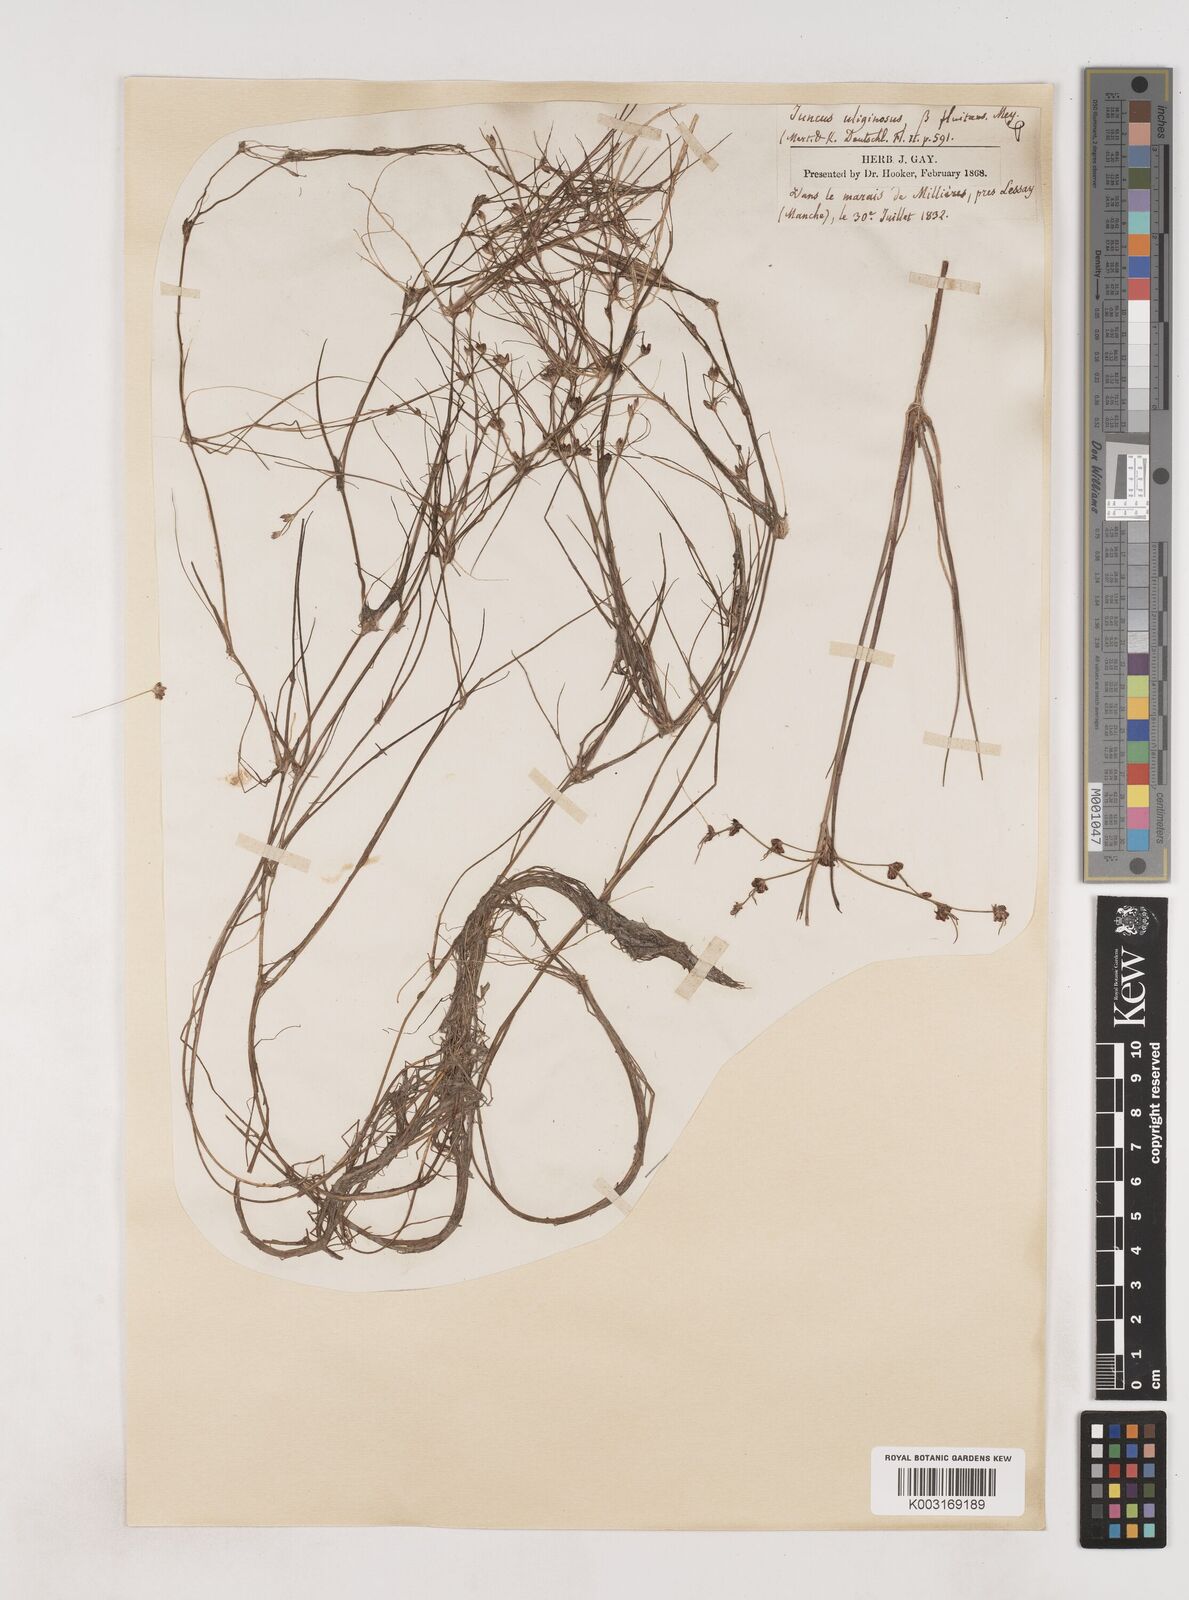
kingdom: Plantae
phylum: Tracheophyta
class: Liliopsida
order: Poales
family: Juncaceae
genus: Juncus
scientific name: Juncus bulbosus
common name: Bulbous rush
